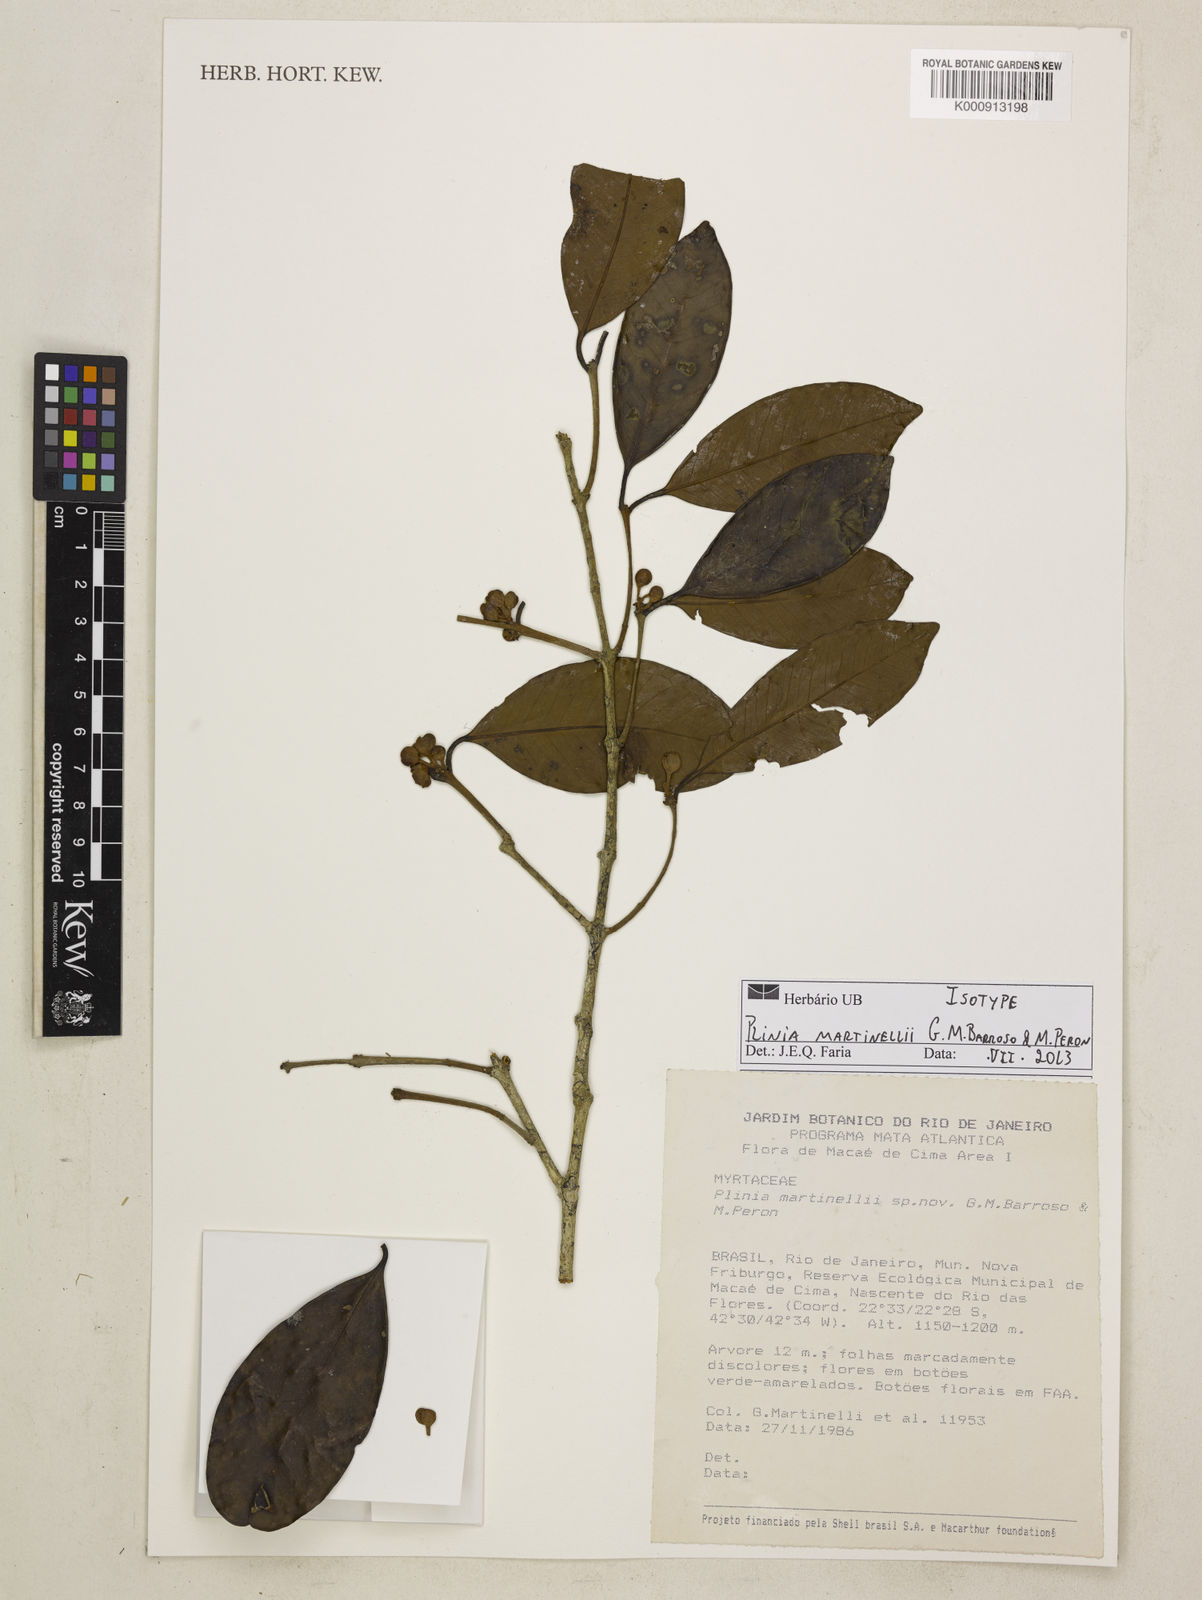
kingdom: Plantae
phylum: Tracheophyta
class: Magnoliopsida
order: Myrtales
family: Myrtaceae
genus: Eugenia
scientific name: Eugenia martinellii
